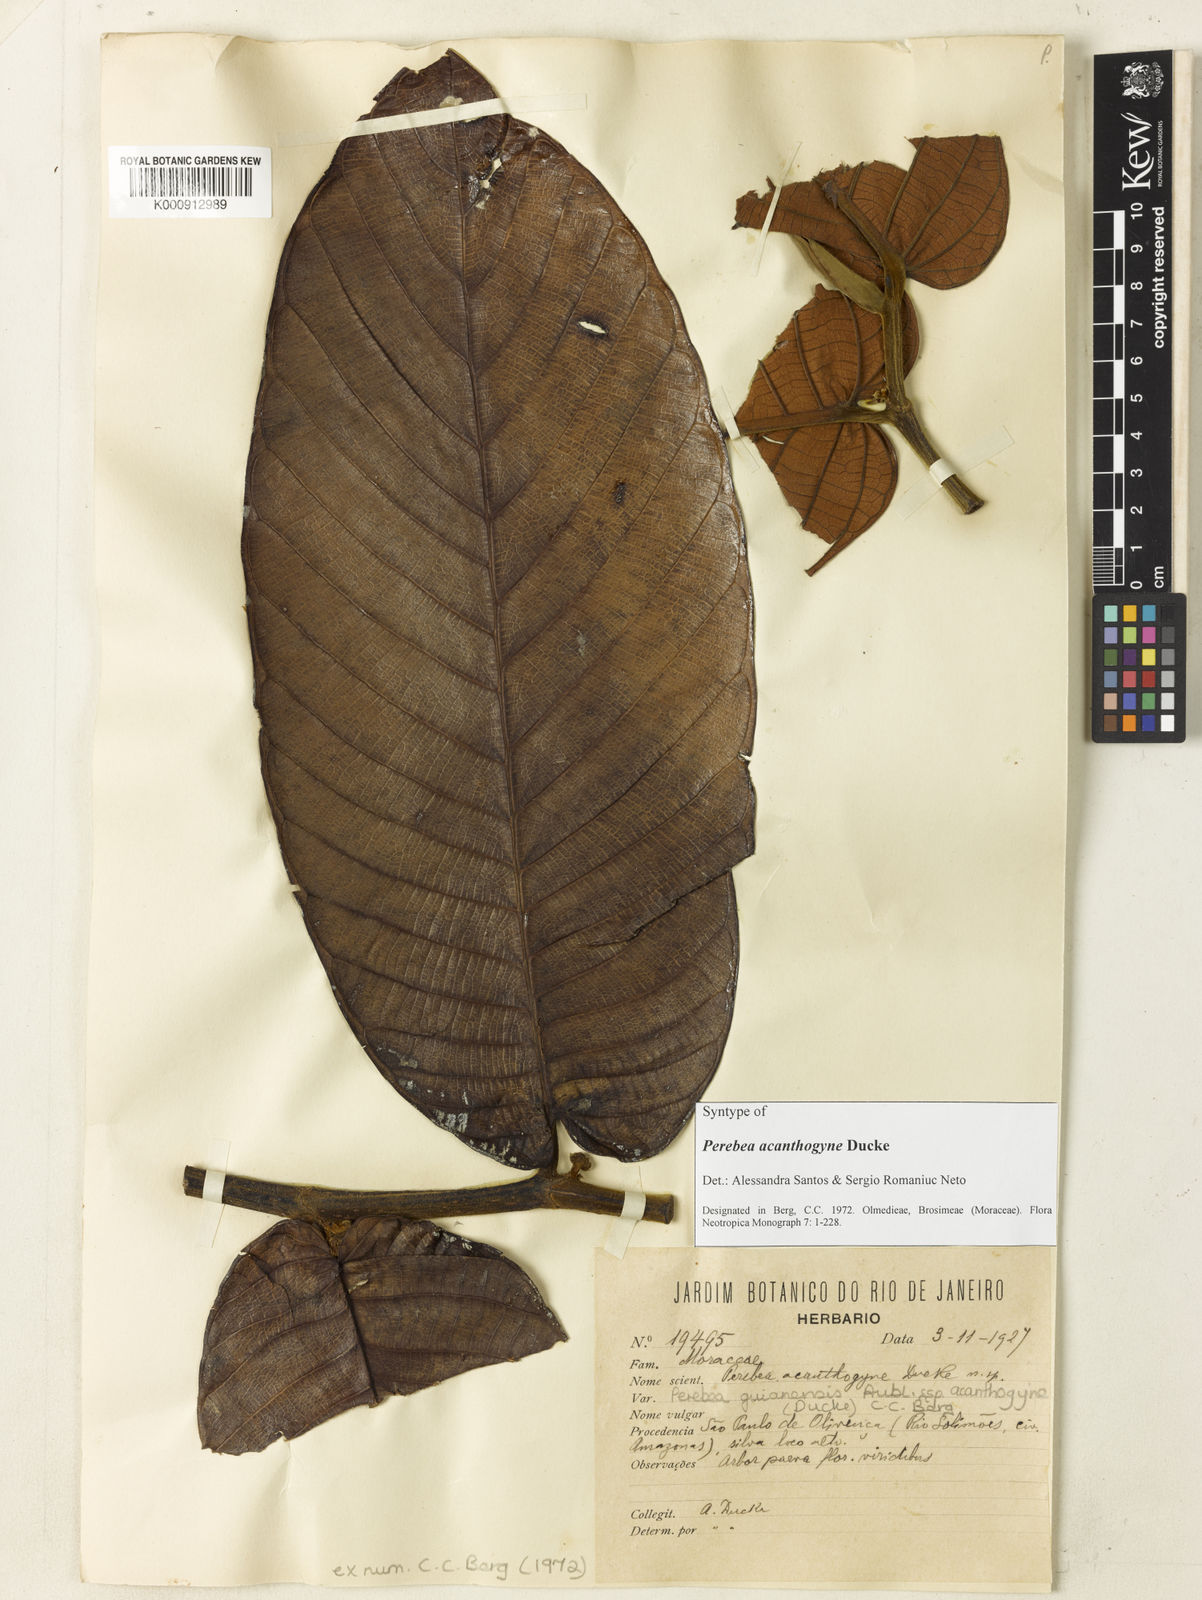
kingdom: Plantae
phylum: Tracheophyta
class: Magnoliopsida
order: Rosales
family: Moraceae
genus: Perebea
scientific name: Perebea guianensis
